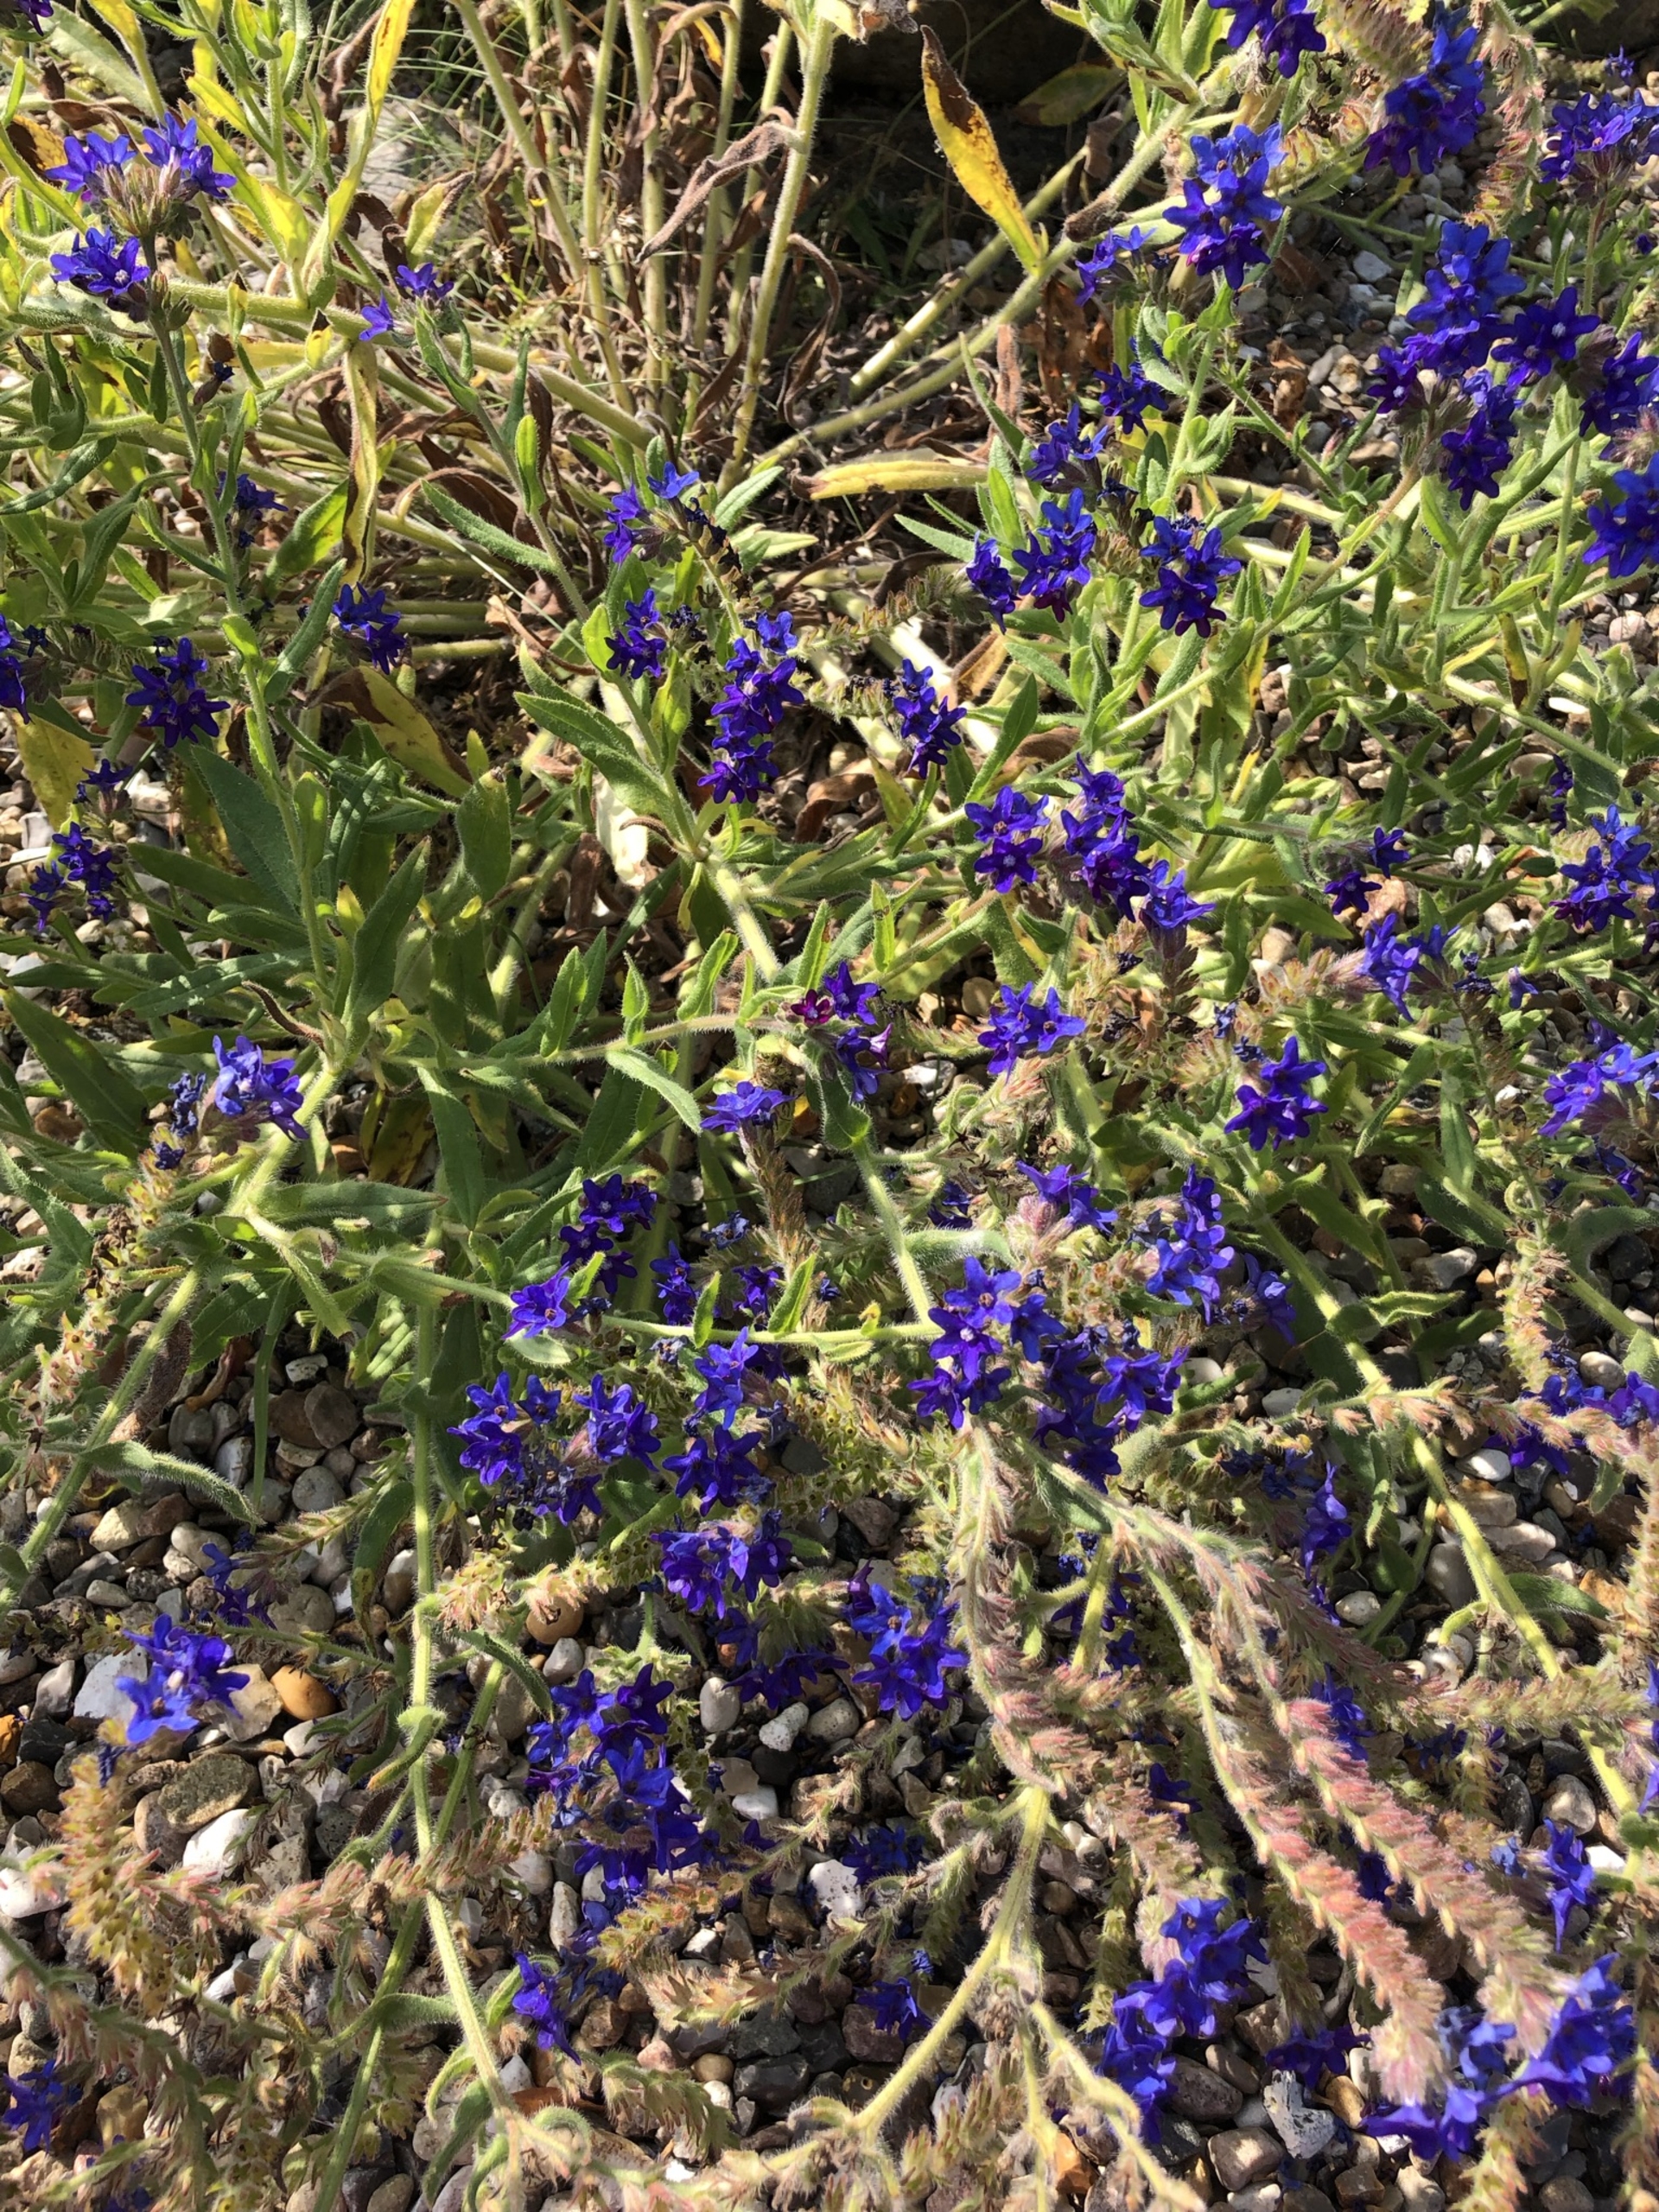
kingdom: Plantae
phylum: Tracheophyta
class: Magnoliopsida
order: Boraginales
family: Boraginaceae
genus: Anchusa
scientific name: Anchusa officinalis
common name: Læge-oksetunge
